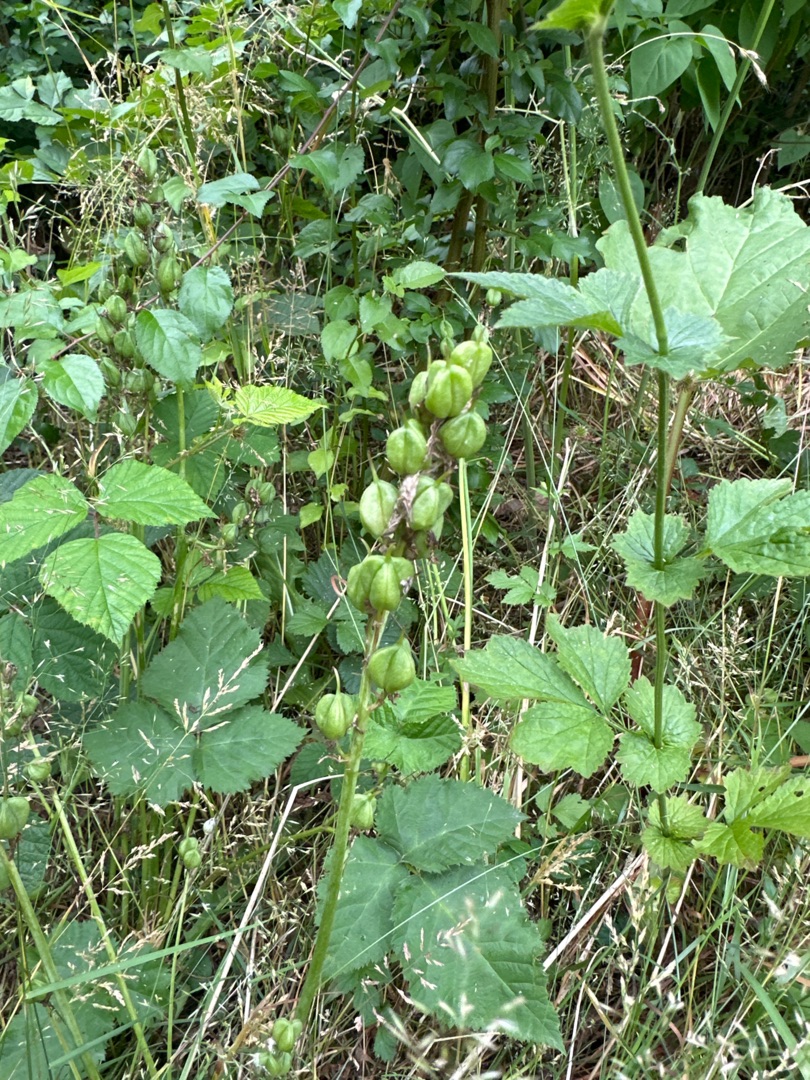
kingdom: Plantae
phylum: Tracheophyta
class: Liliopsida
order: Asparagales
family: Asparagaceae
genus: Hyacinthoides
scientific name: Hyacinthoides
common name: Skilla (Hyacinthoides-slægten)
